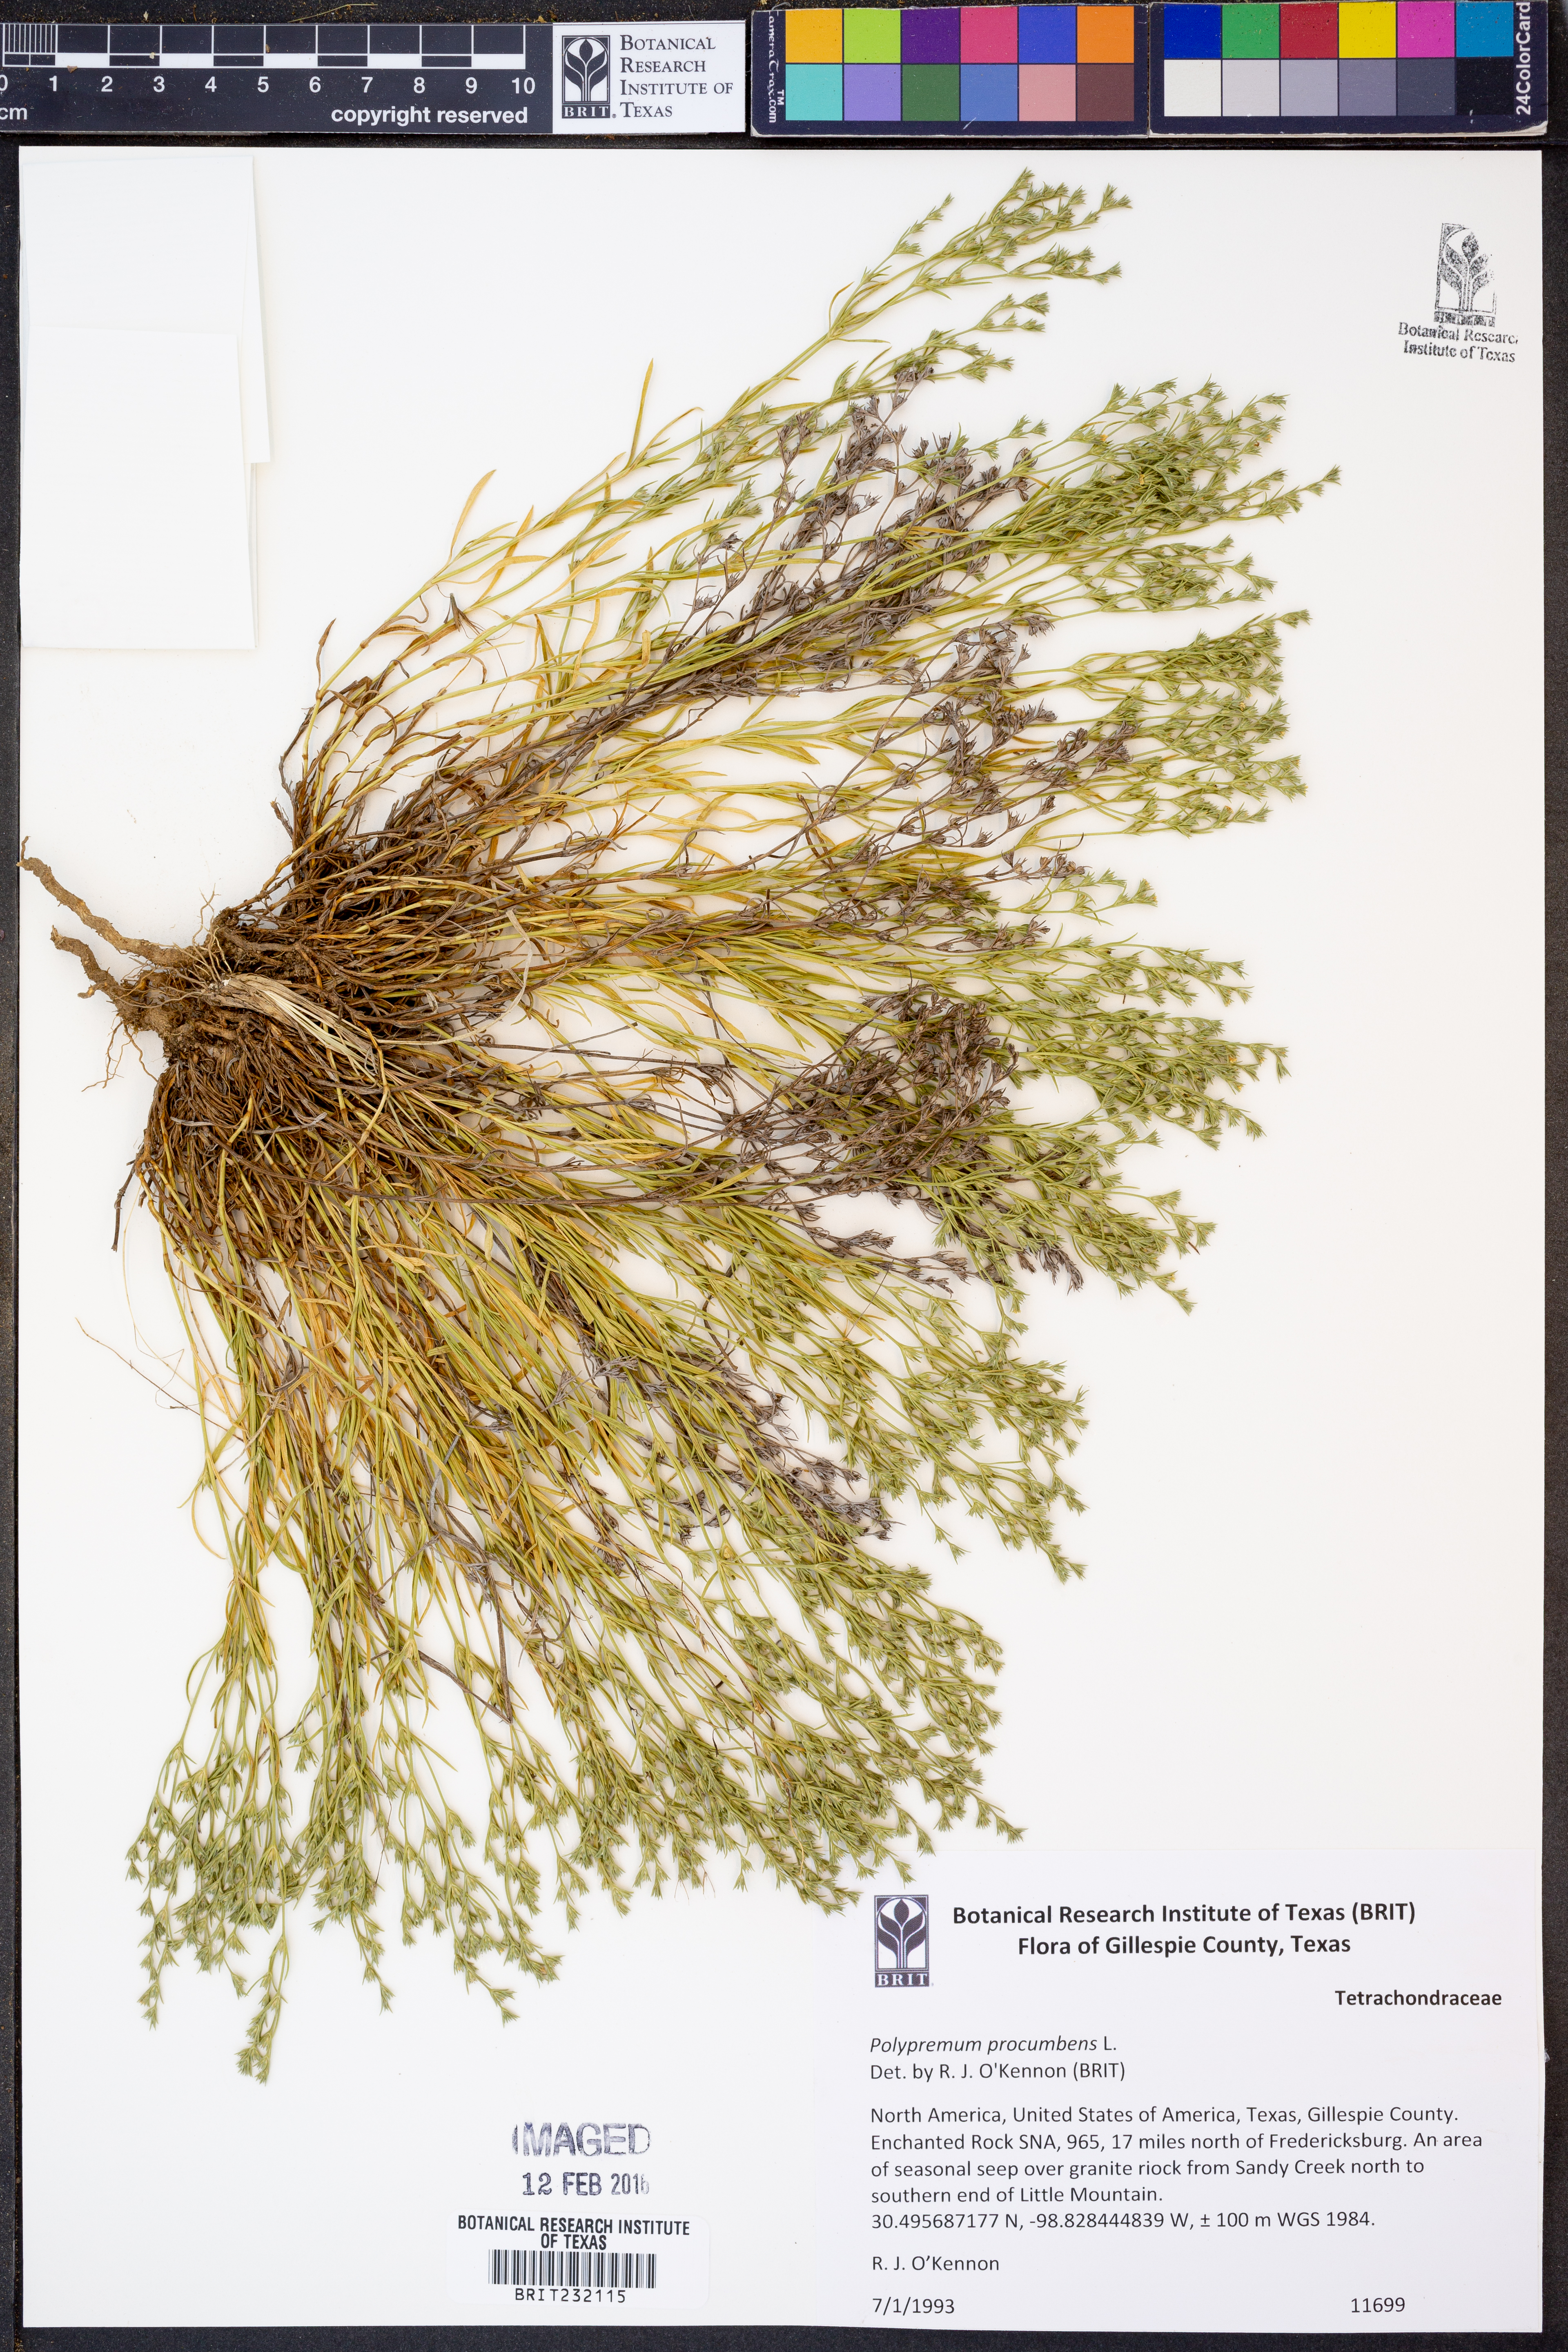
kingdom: Plantae
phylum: Tracheophyta
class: Magnoliopsida
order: Lamiales
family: Tetrachondraceae
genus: Polypremum
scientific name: Polypremum procumbens
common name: Juniper-leaf
